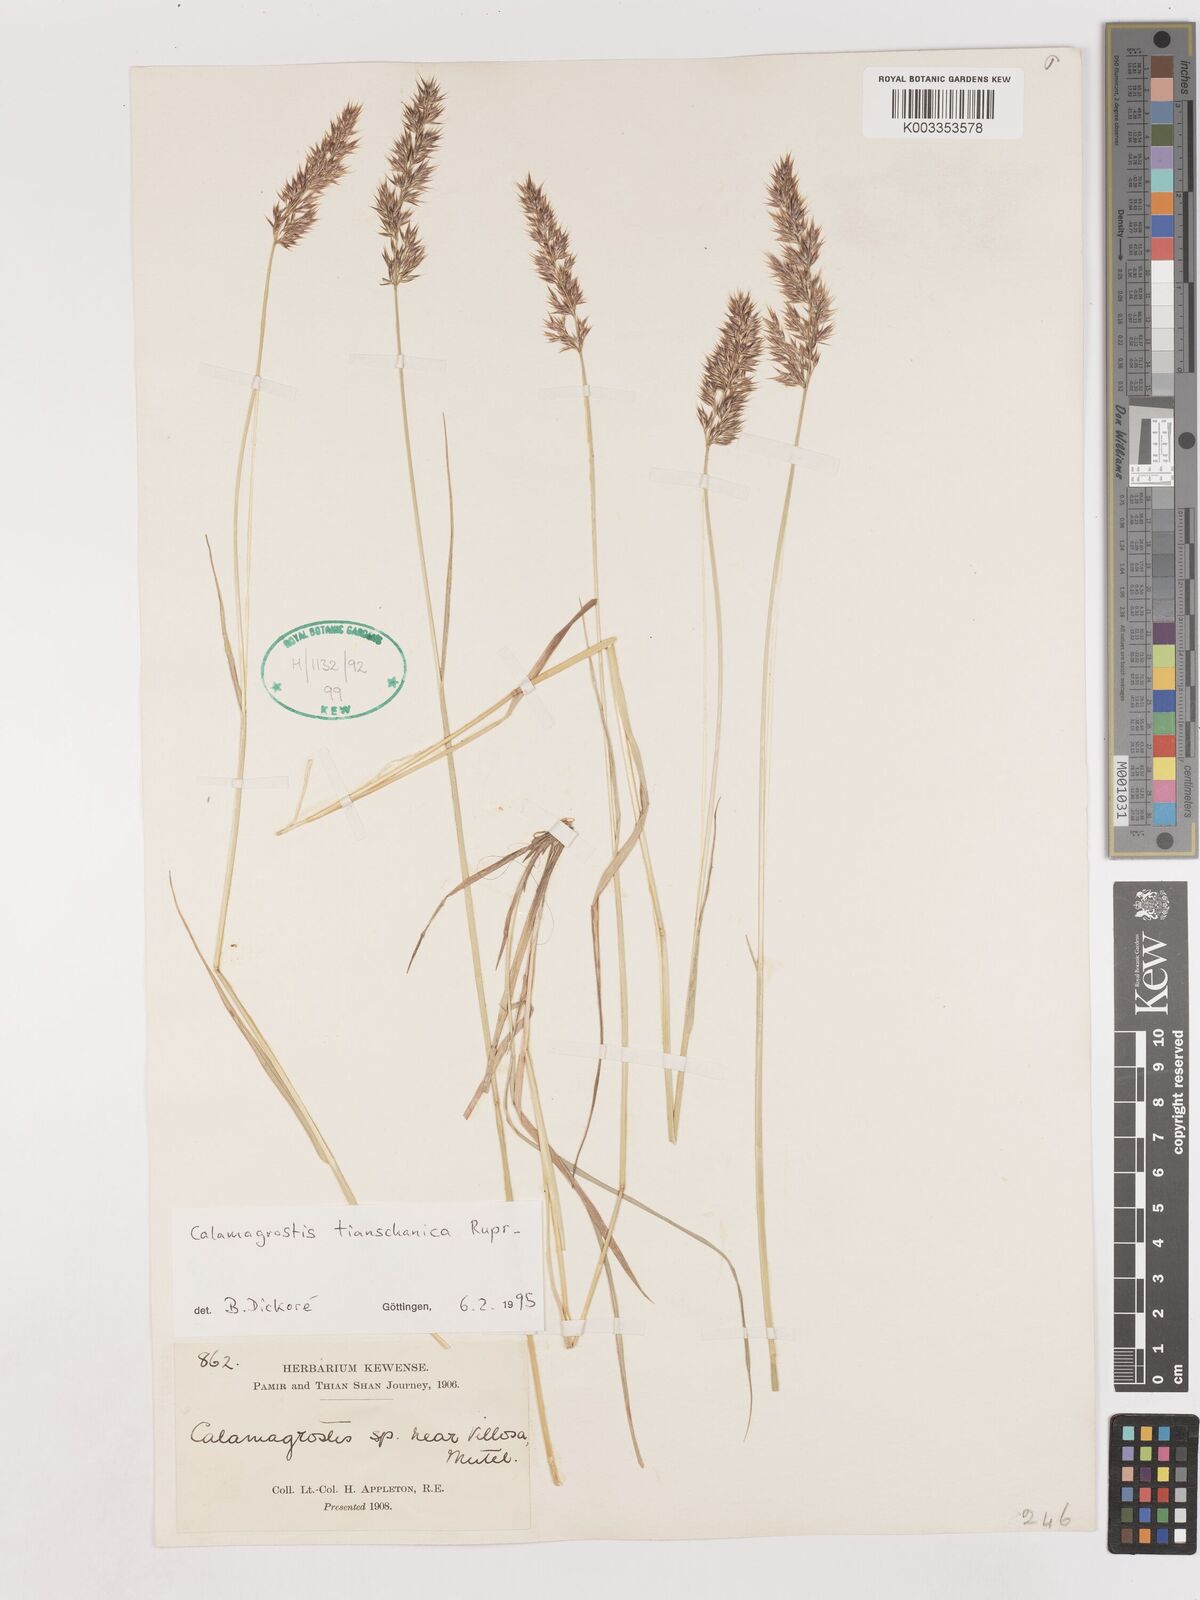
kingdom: Plantae
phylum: Tracheophyta
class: Liliopsida
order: Poales
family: Poaceae
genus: Calamagrostis
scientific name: Calamagrostis tianschanica
